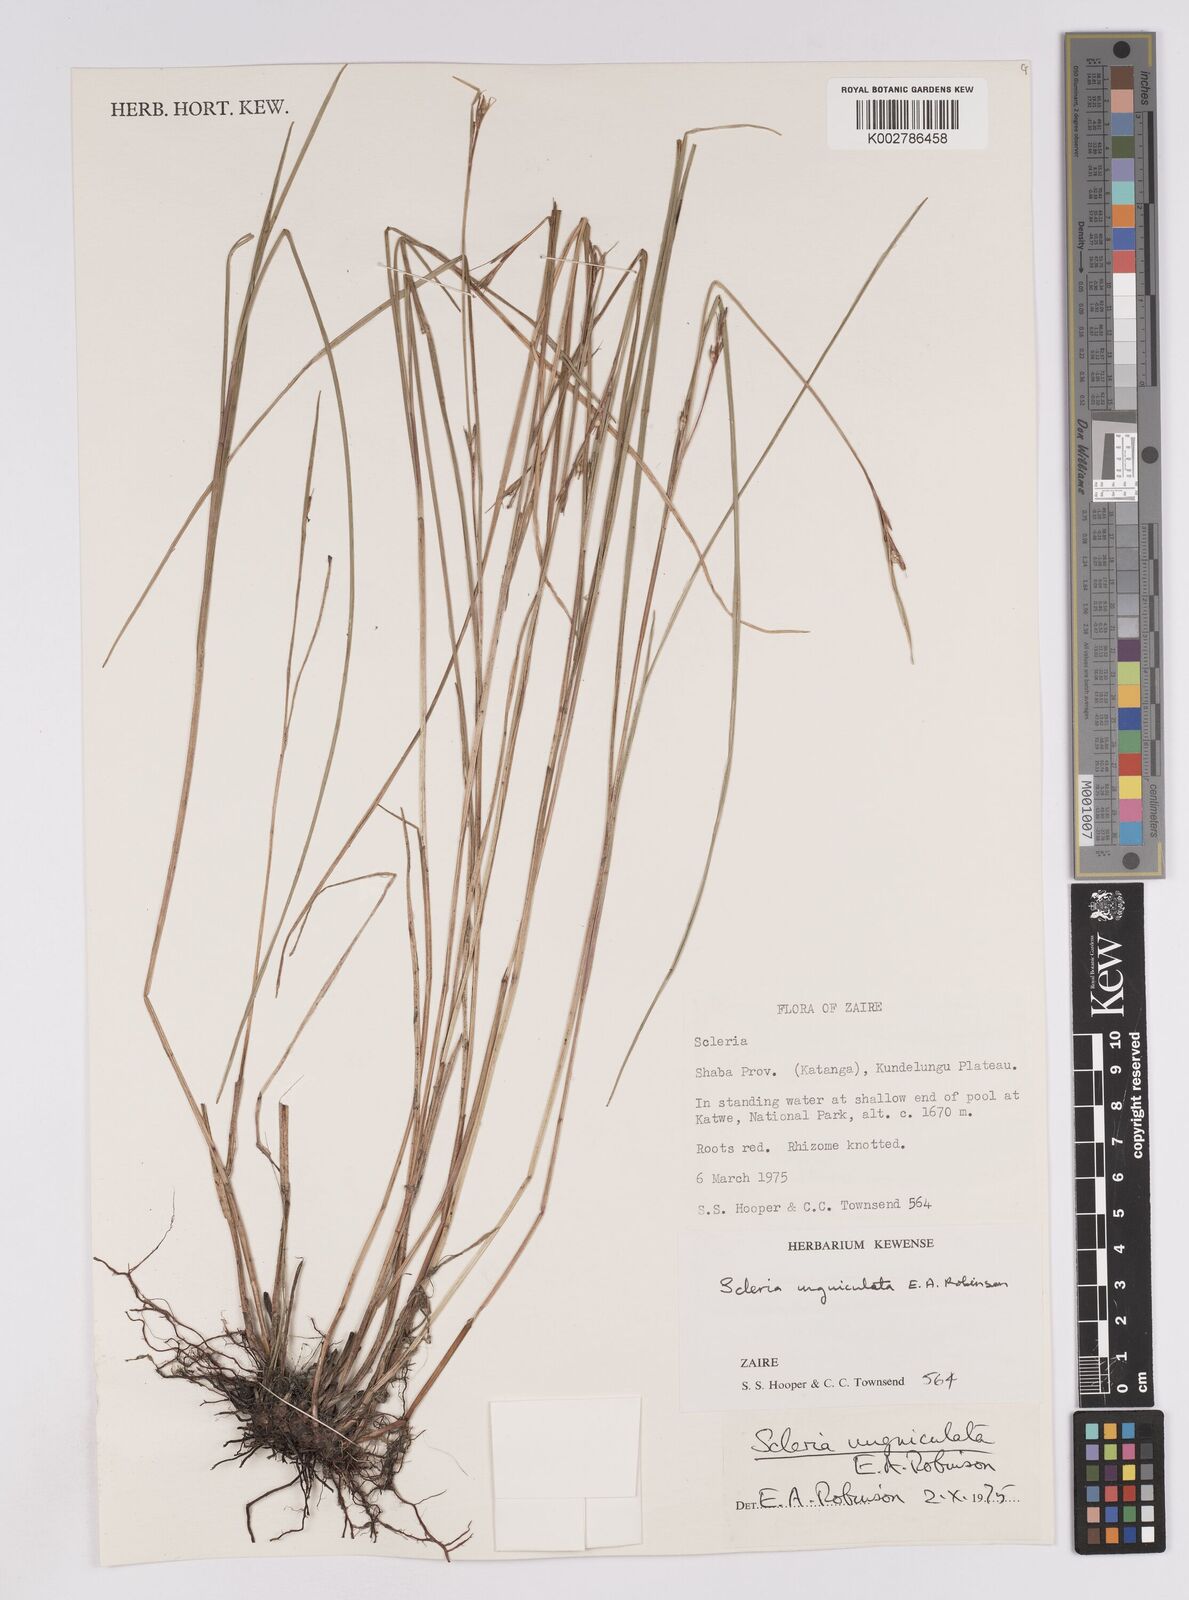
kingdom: Plantae
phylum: Tracheophyta
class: Liliopsida
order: Poales
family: Cyperaceae
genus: Scleria
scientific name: Scleria unguiculata
